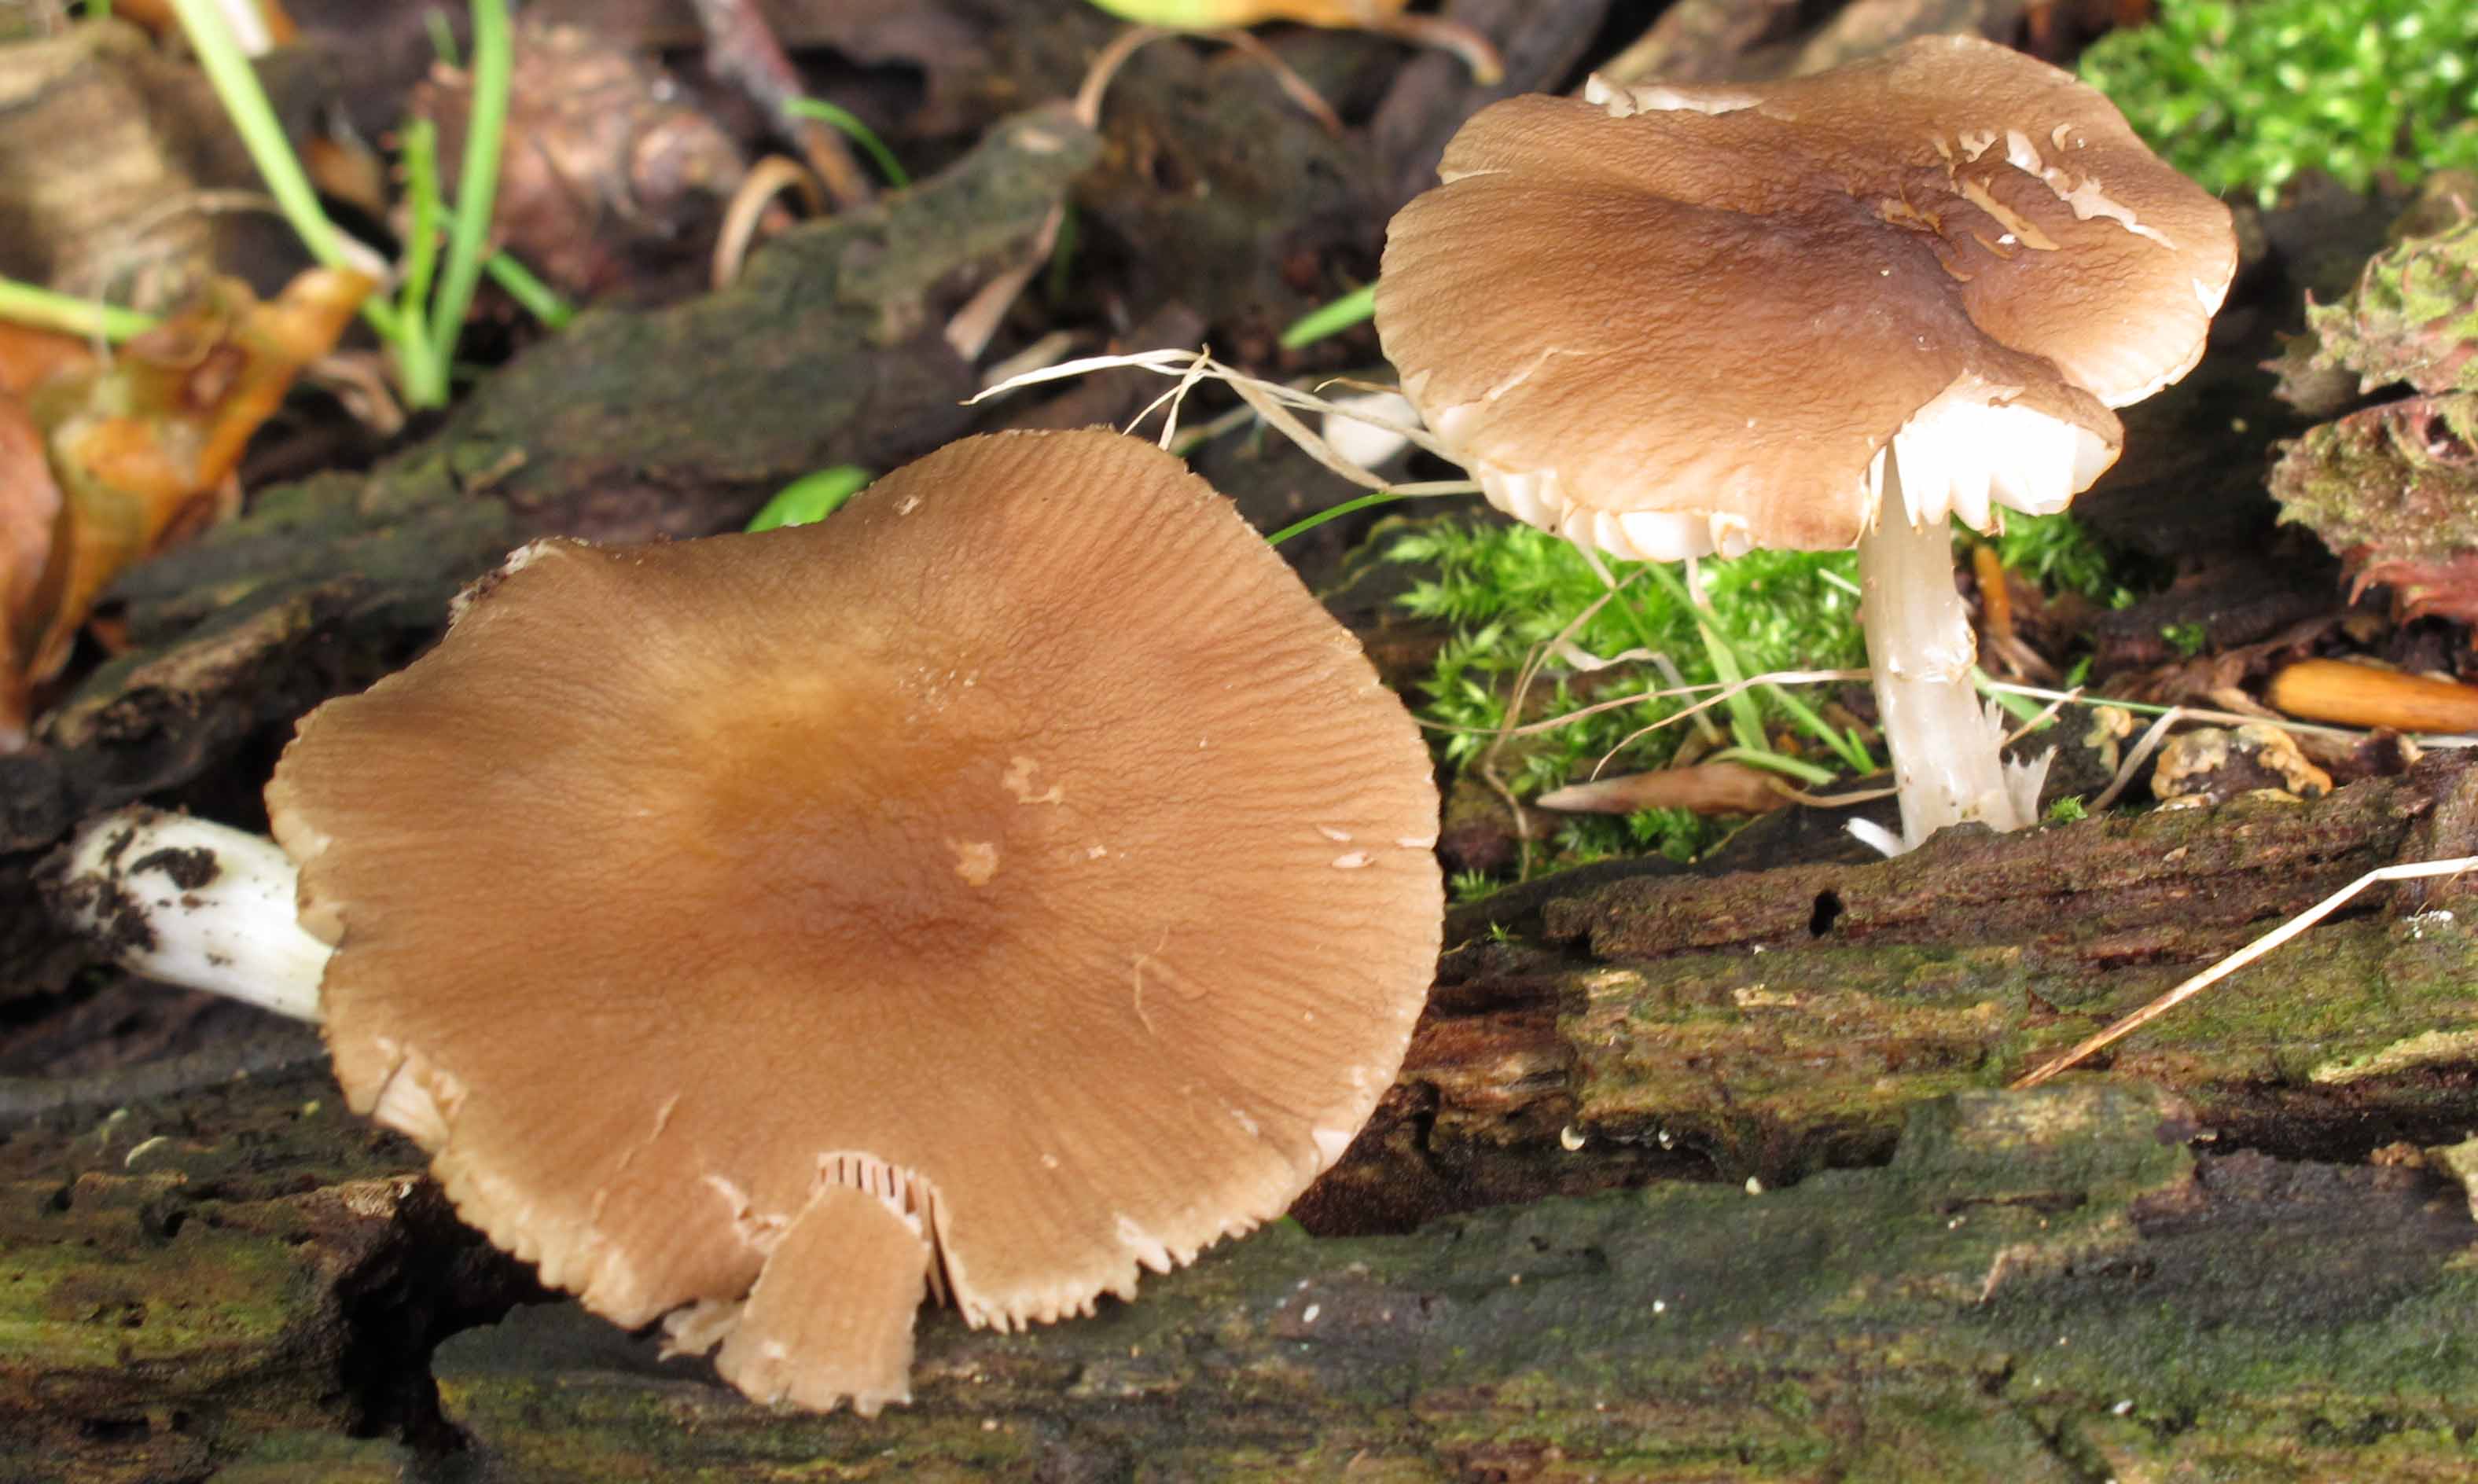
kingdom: Fungi
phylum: Basidiomycota
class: Agaricomycetes
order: Agaricales
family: Pluteaceae
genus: Pluteus
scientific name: Pluteus phlebophorus
